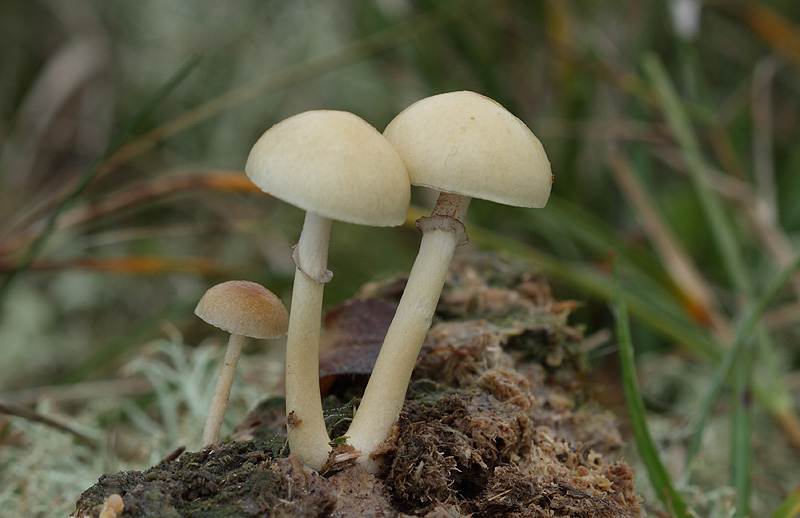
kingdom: Fungi
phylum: Basidiomycota
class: Agaricomycetes
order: Agaricales
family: Strophariaceae
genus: Protostropharia
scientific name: Protostropharia semiglobata
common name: halvkugleformet bredblad
